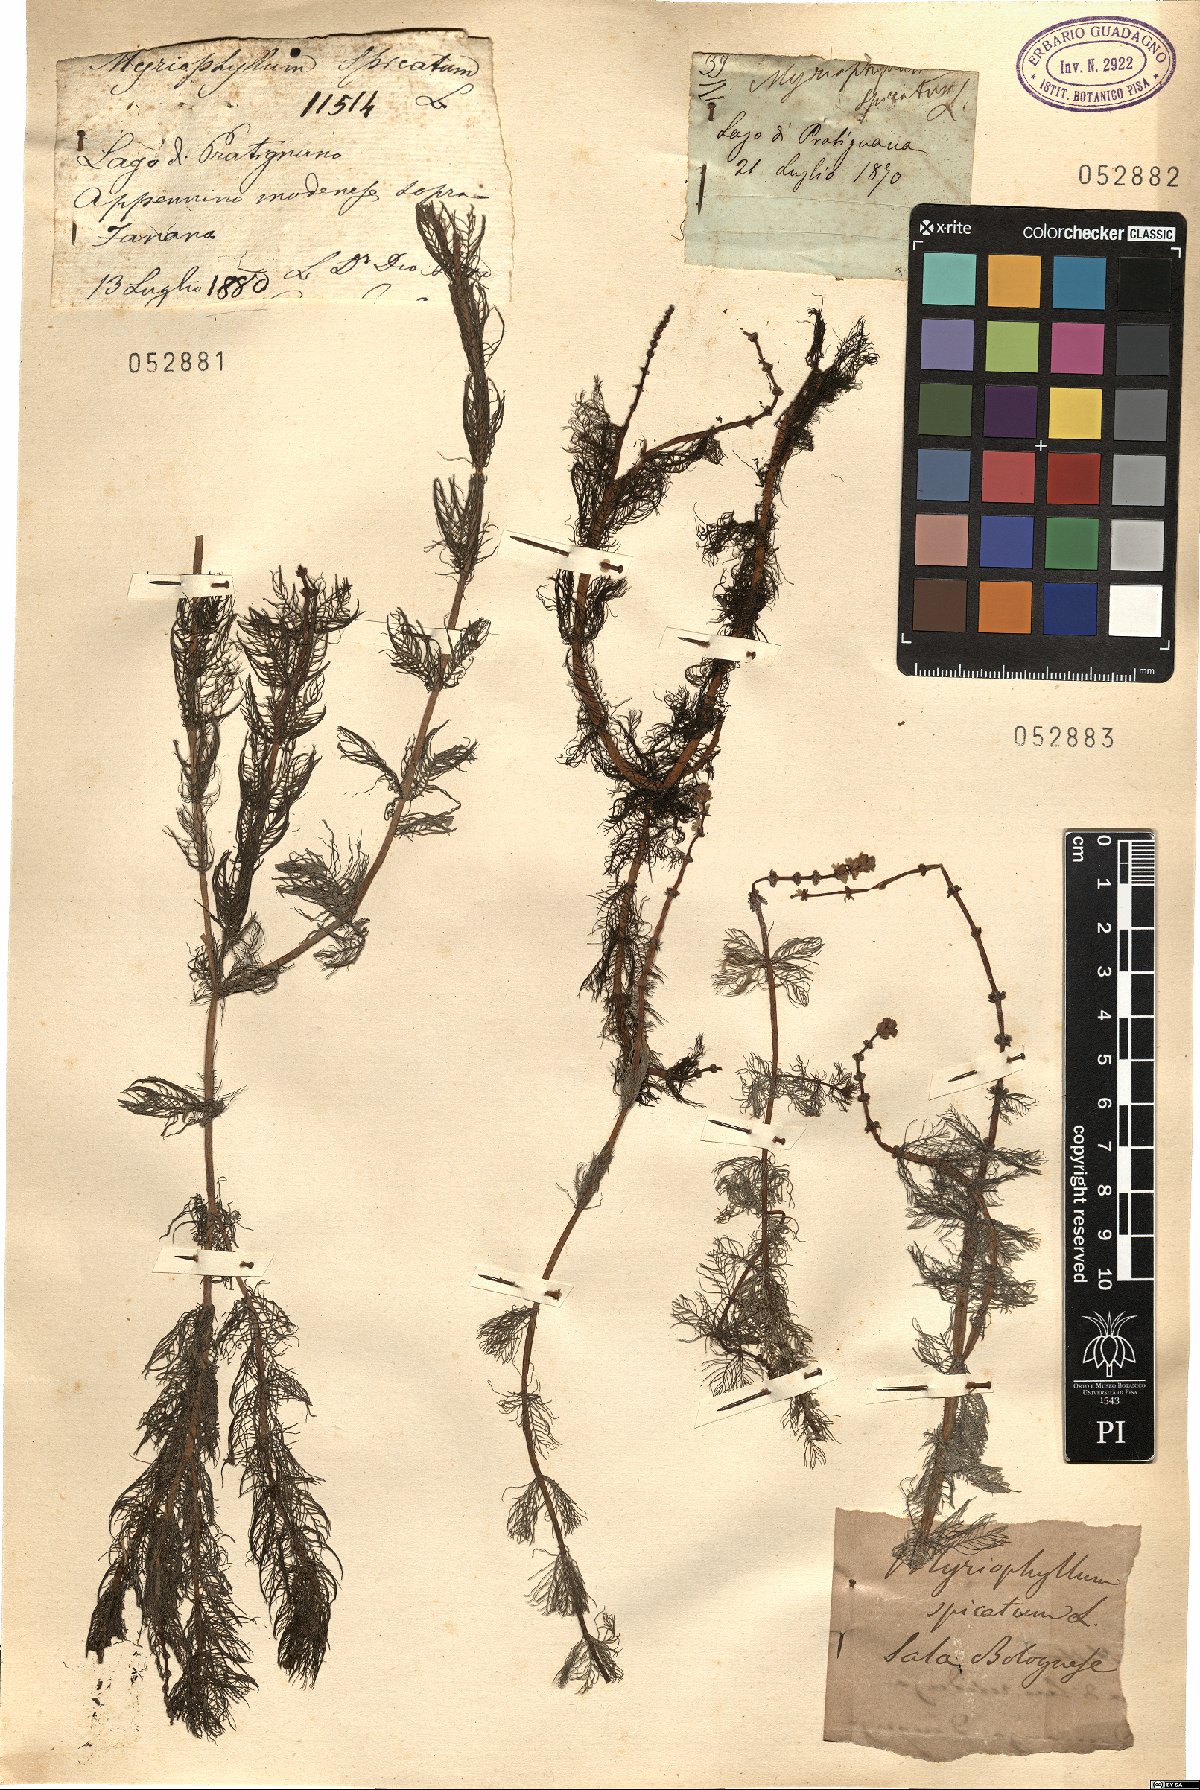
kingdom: Plantae
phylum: Tracheophyta
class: Magnoliopsida
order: Saxifragales
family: Haloragaceae
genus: Myriophyllum
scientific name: Myriophyllum spicatum
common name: Spiked water-milfoil
